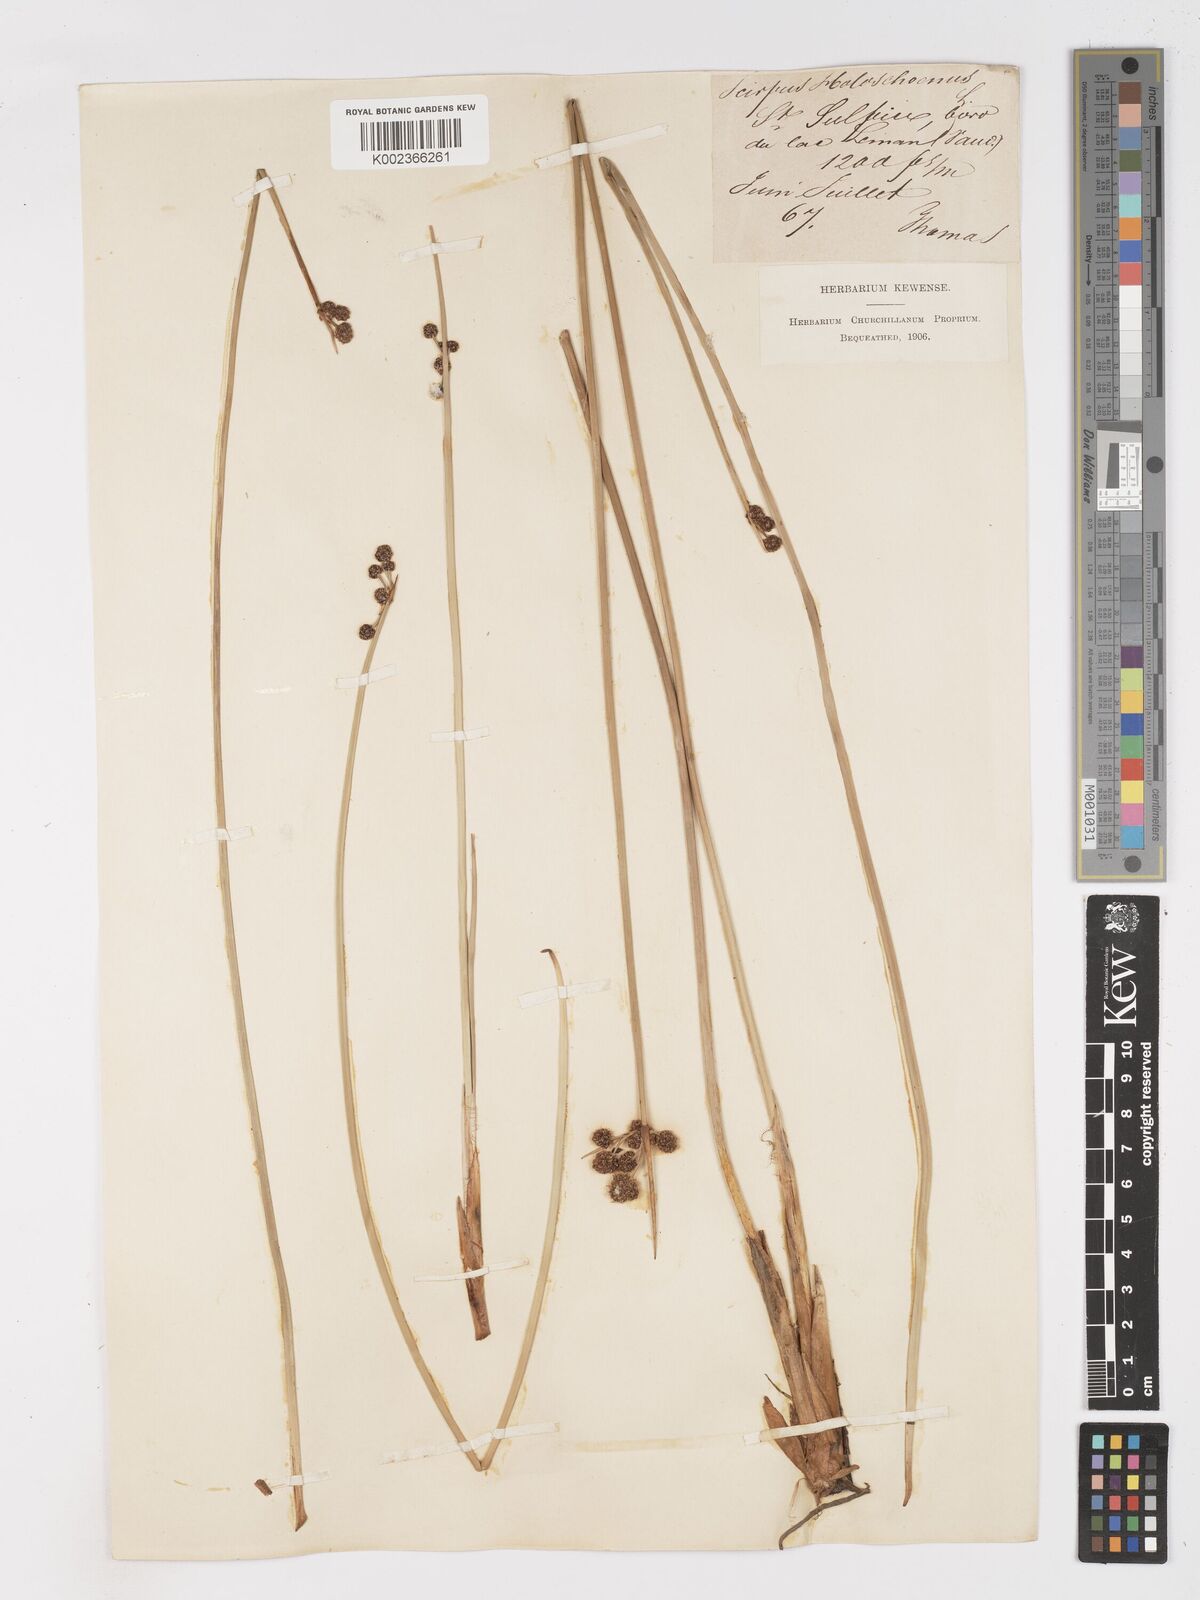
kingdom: Plantae
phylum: Tracheophyta
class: Liliopsida
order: Poales
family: Cyperaceae
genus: Scirpoides
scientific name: Scirpoides holoschoenus
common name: Round-headed club-rush
